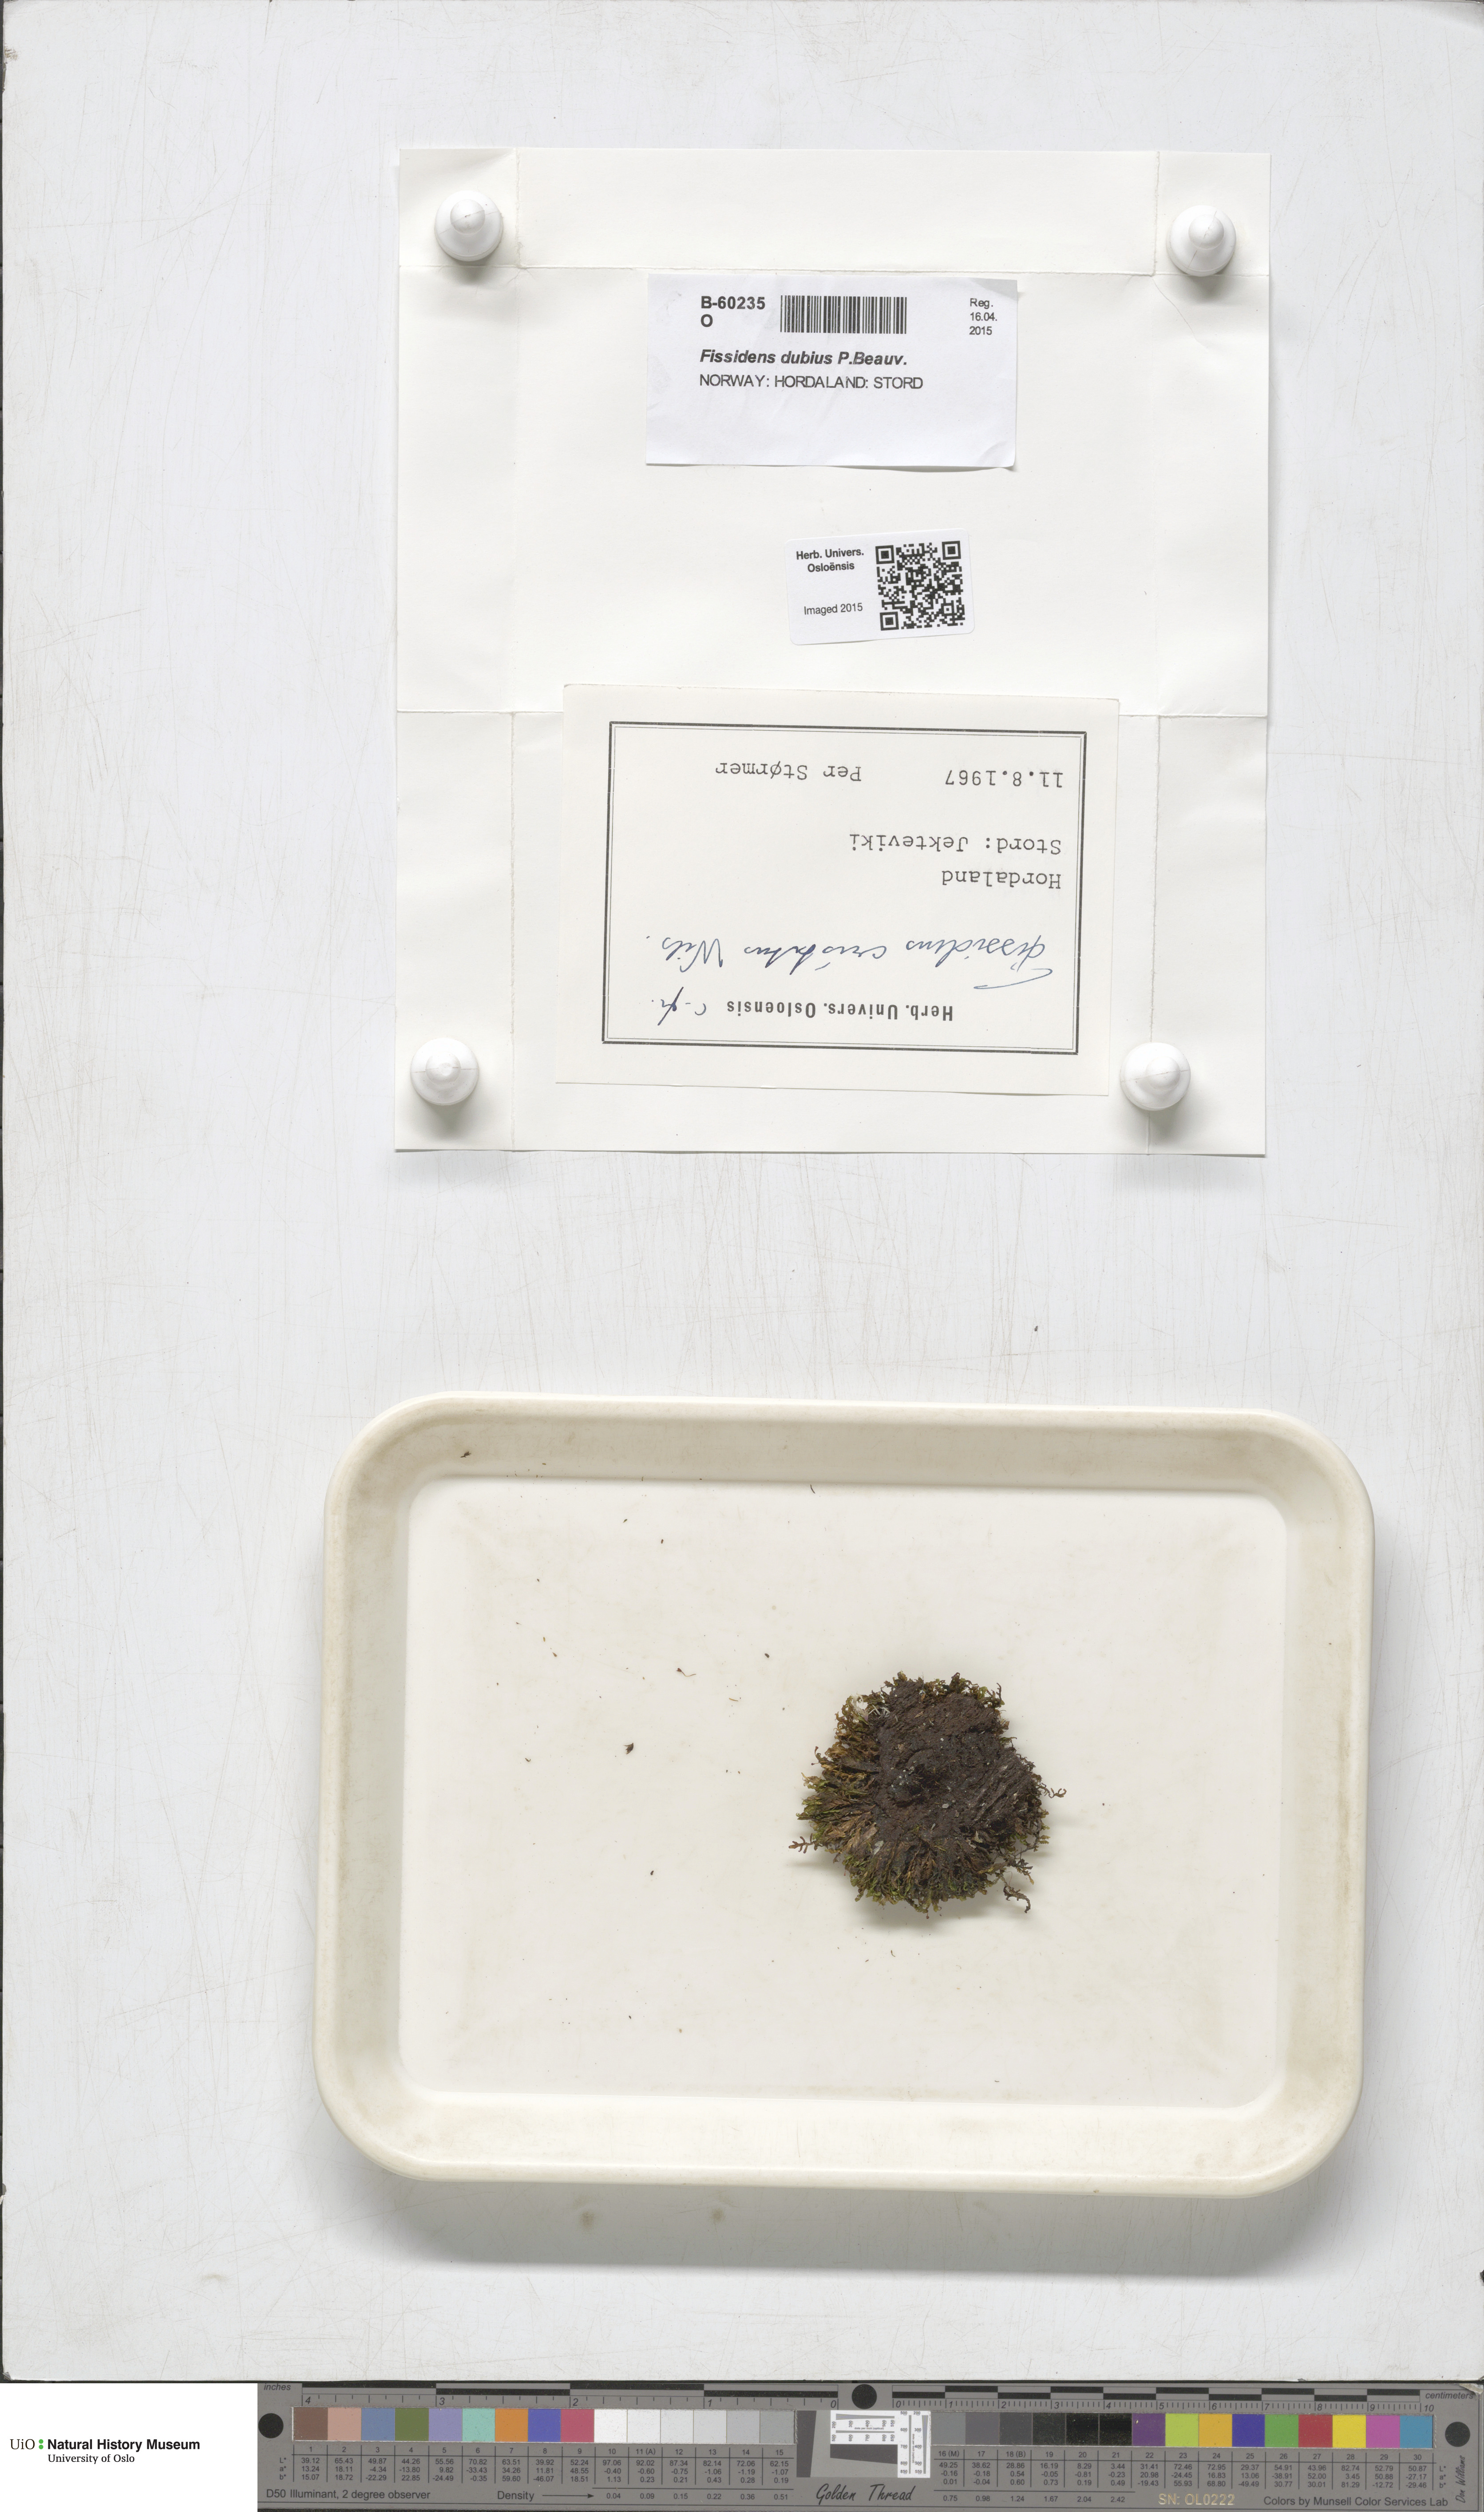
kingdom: Plantae
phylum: Bryophyta
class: Bryopsida
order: Dicranales
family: Fissidentaceae
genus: Fissidens
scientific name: Fissidens dubius
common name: Rock pocket moss
